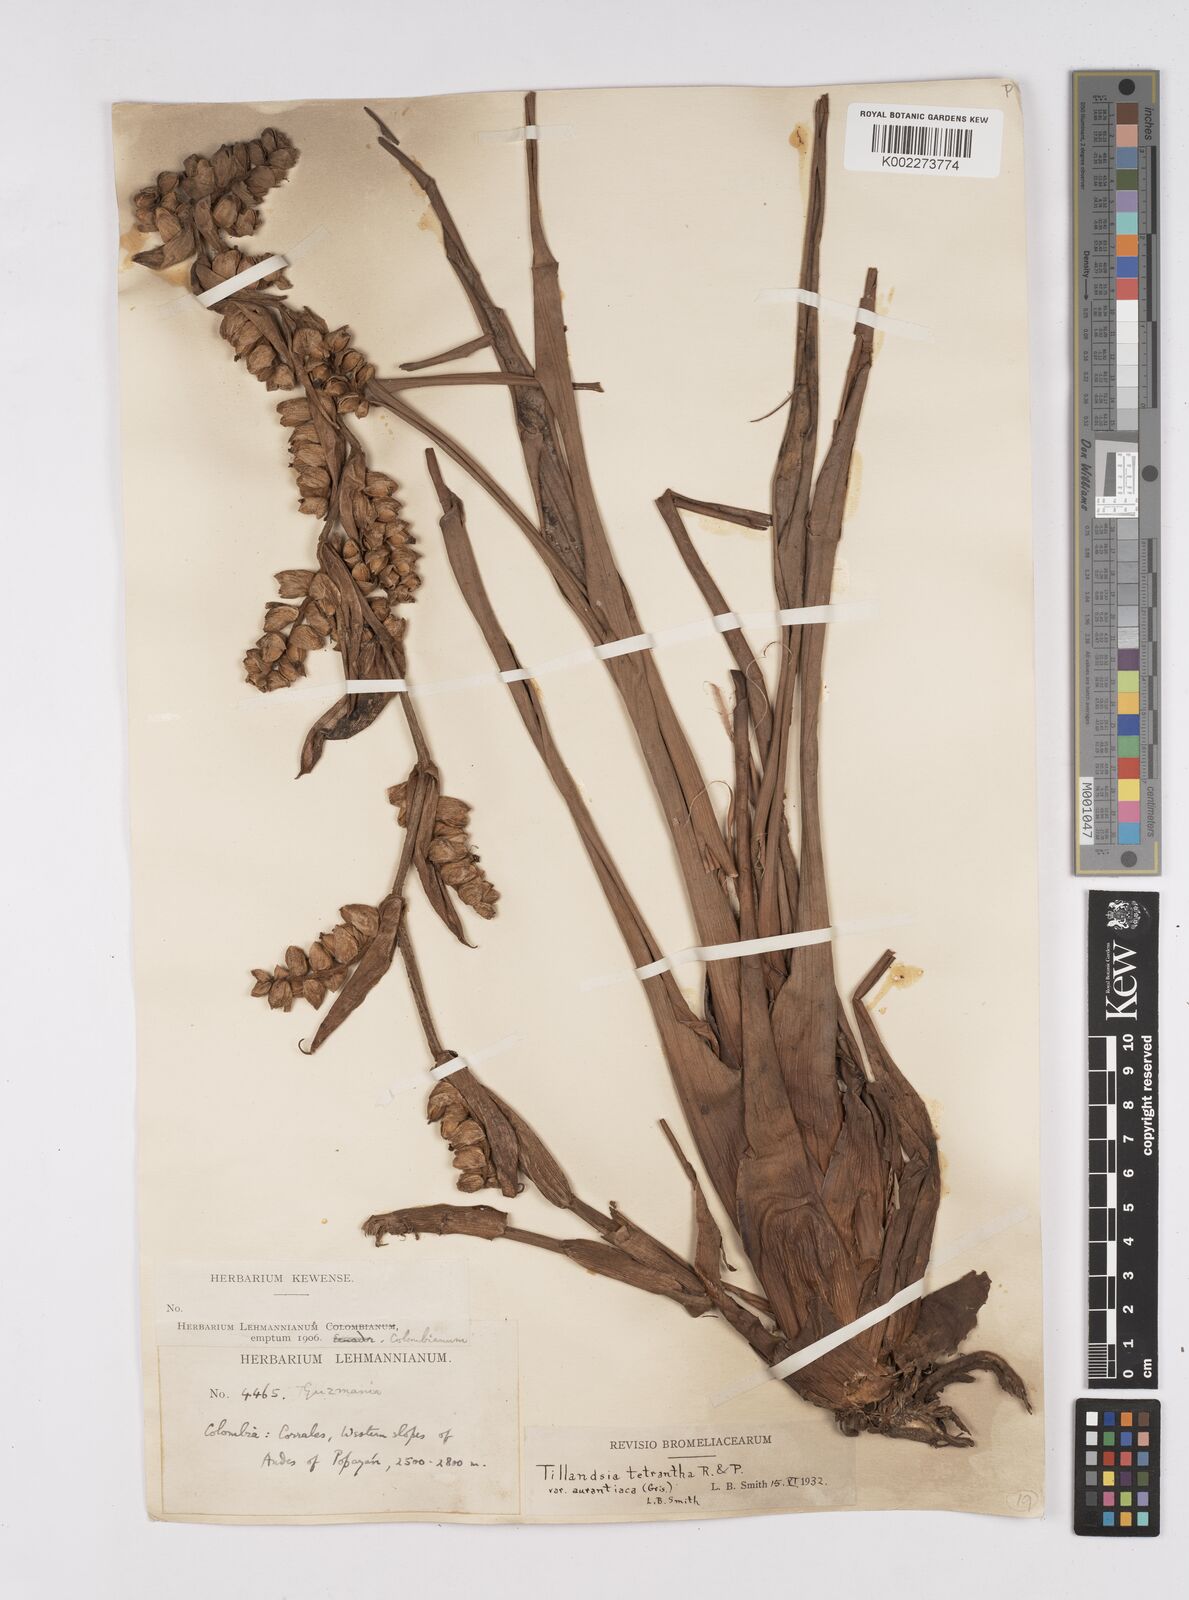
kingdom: Plantae
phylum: Tracheophyta
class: Liliopsida
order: Poales
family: Bromeliaceae
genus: Racinaea
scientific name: Racinaea tetrantha
